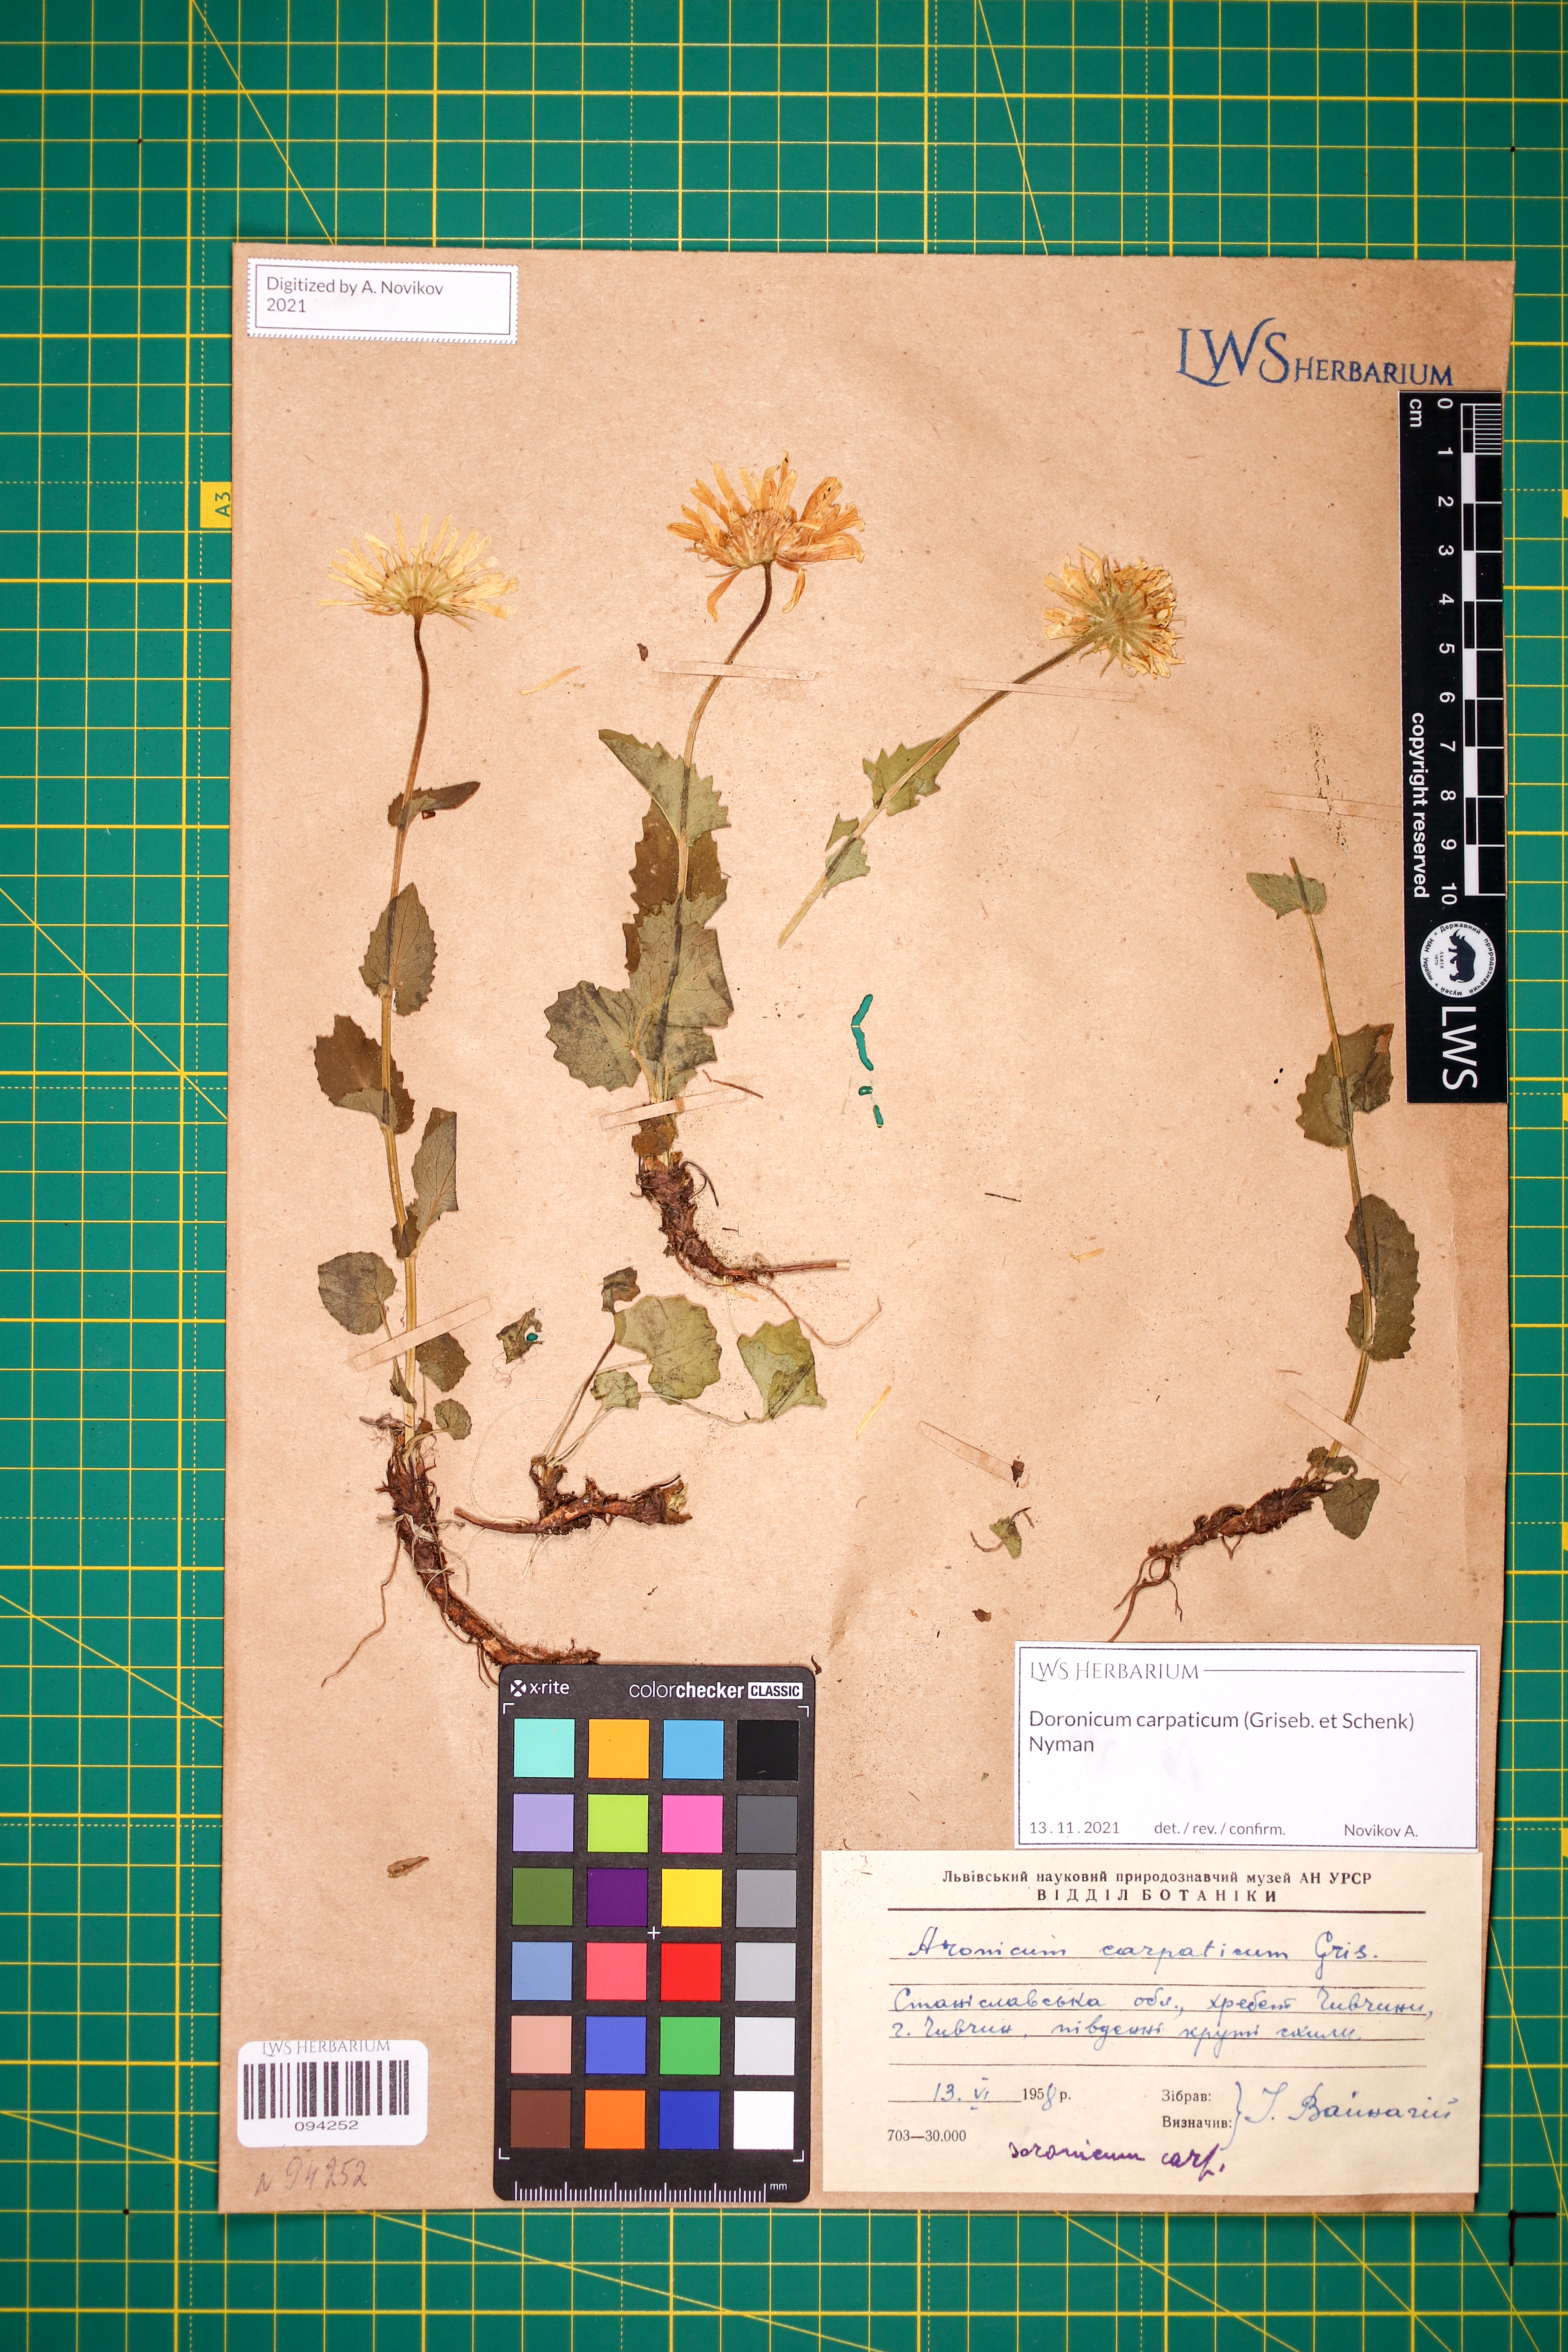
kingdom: Plantae
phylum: Tracheophyta
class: Magnoliopsida
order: Asterales
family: Asteraceae
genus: Doronicum
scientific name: Doronicum carpaticum
